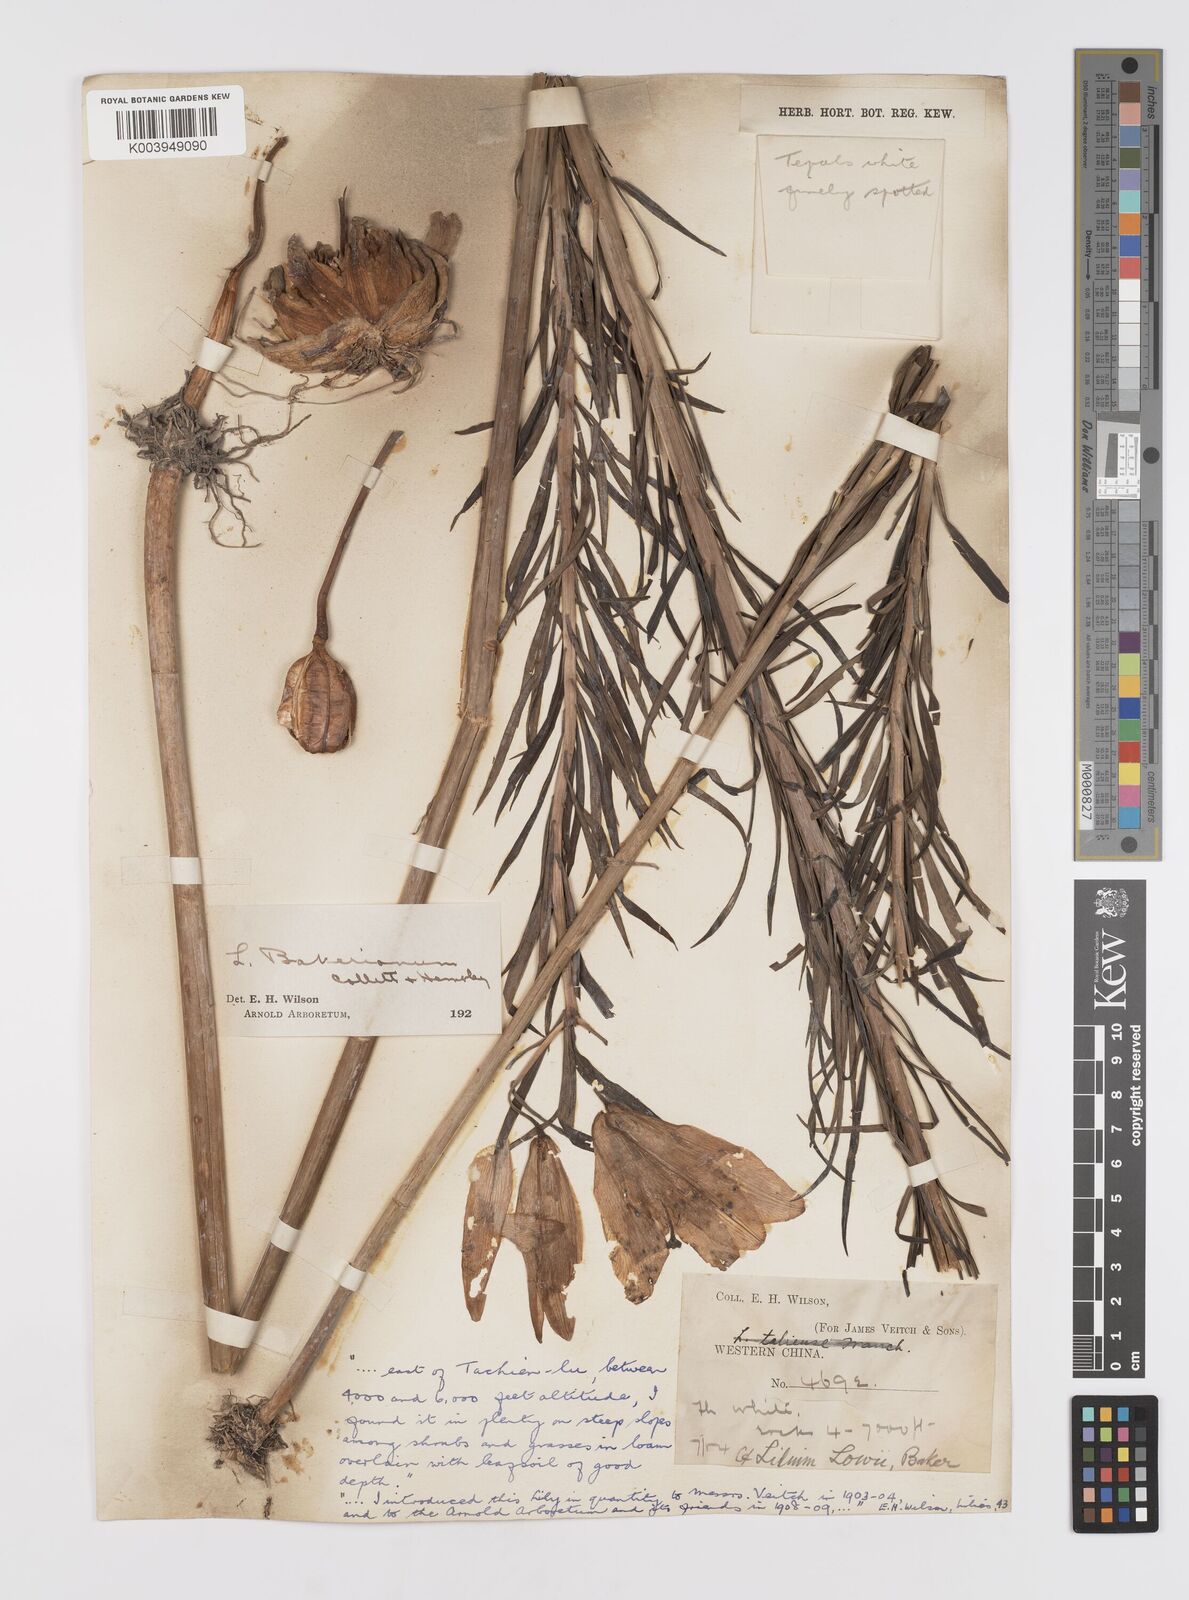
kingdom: Plantae
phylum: Tracheophyta
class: Liliopsida
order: Liliales
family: Liliaceae
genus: Lilium
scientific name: Lilium bakerianum
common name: Baker's lily
